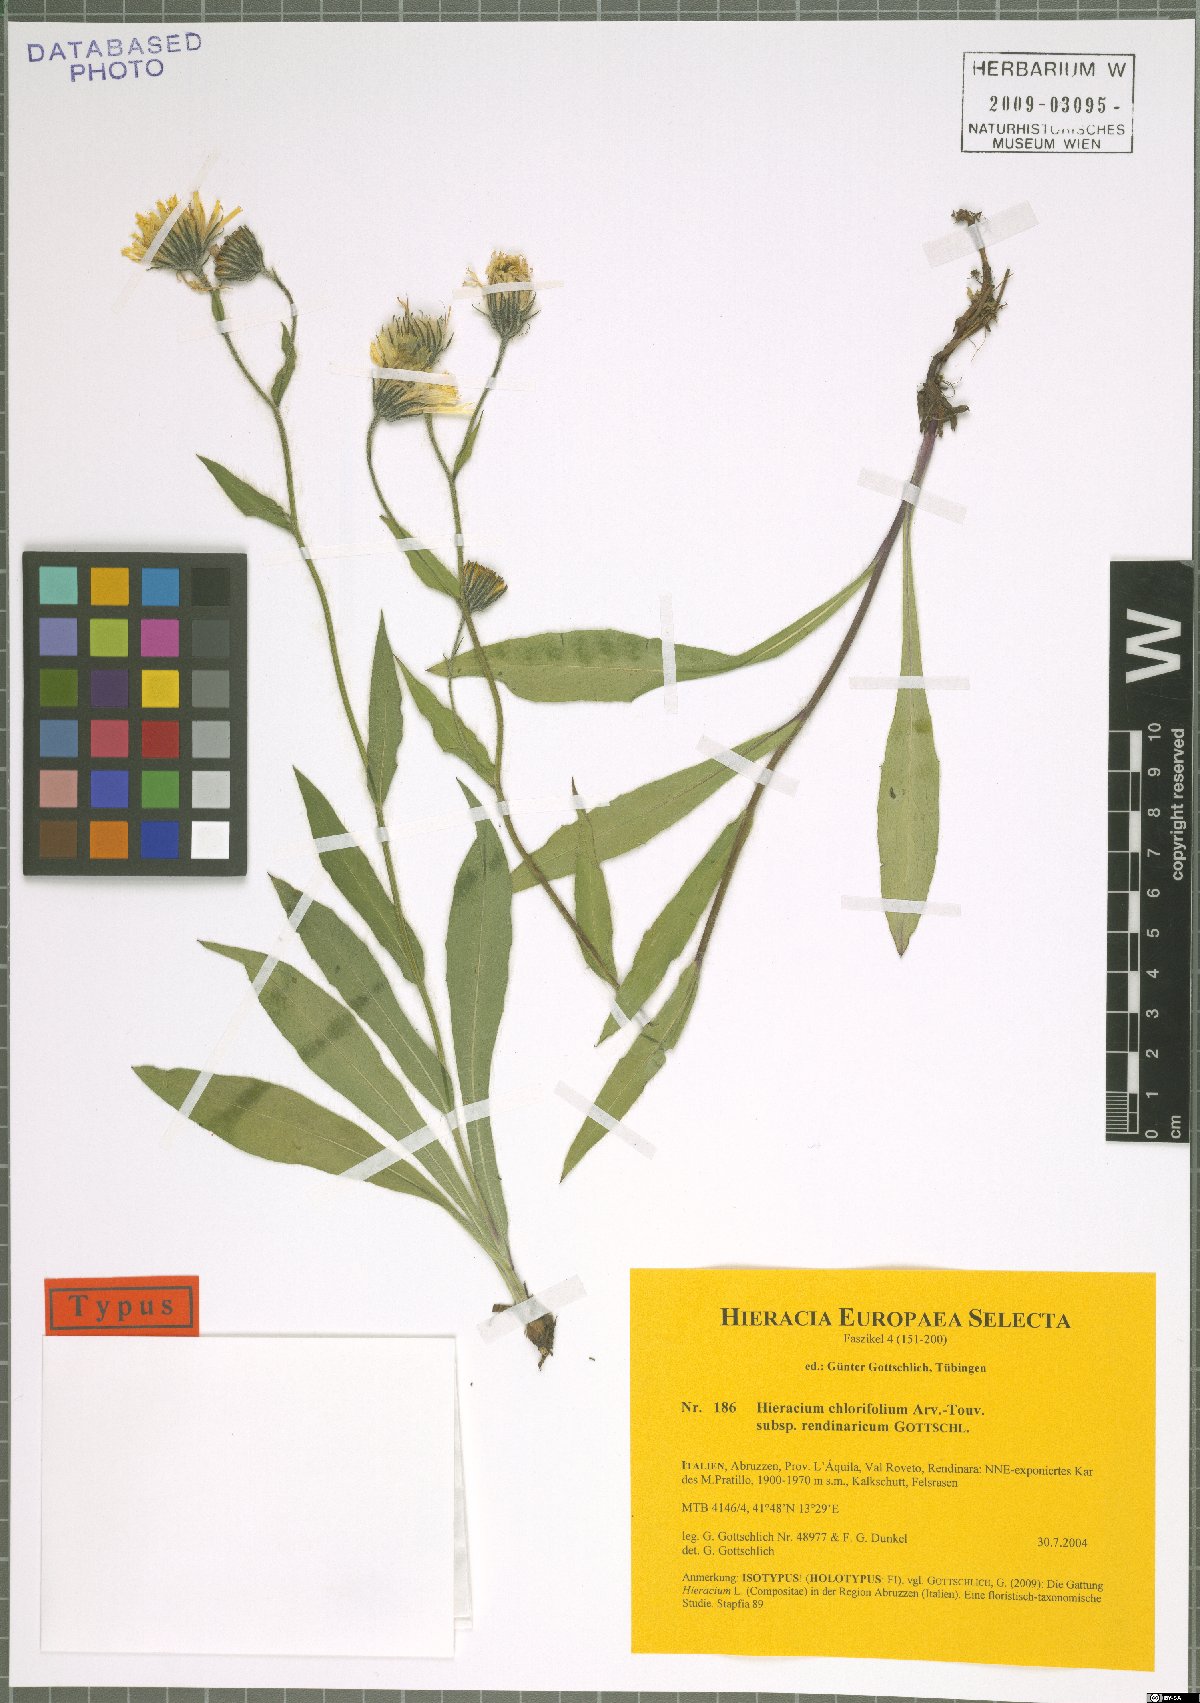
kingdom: Plantae
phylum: Tracheophyta
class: Magnoliopsida
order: Asterales
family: Asteraceae
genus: Hieracium
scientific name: Hieracium chlorifolium
